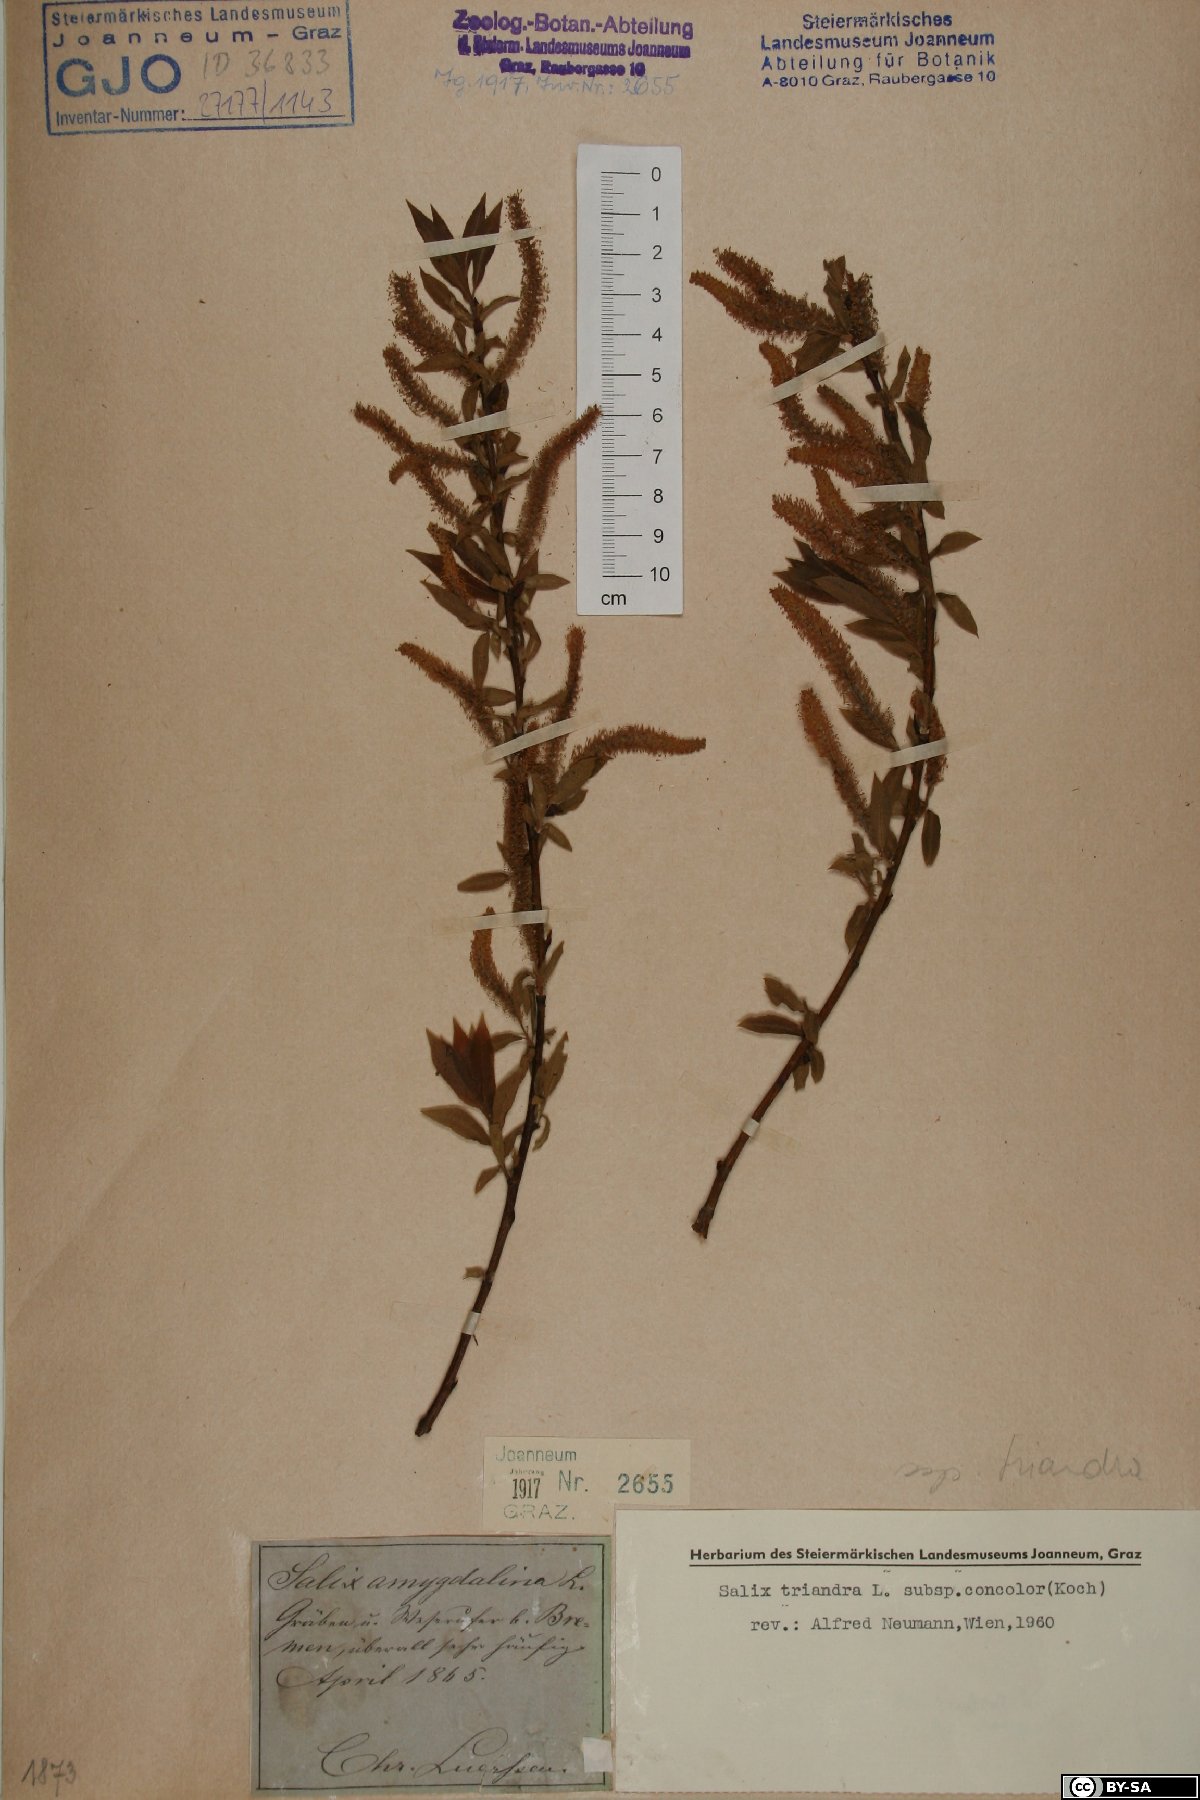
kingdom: Plantae
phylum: Tracheophyta
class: Magnoliopsida
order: Malpighiales
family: Salicaceae
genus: Salix
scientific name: Salix triandra
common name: Almond willow
